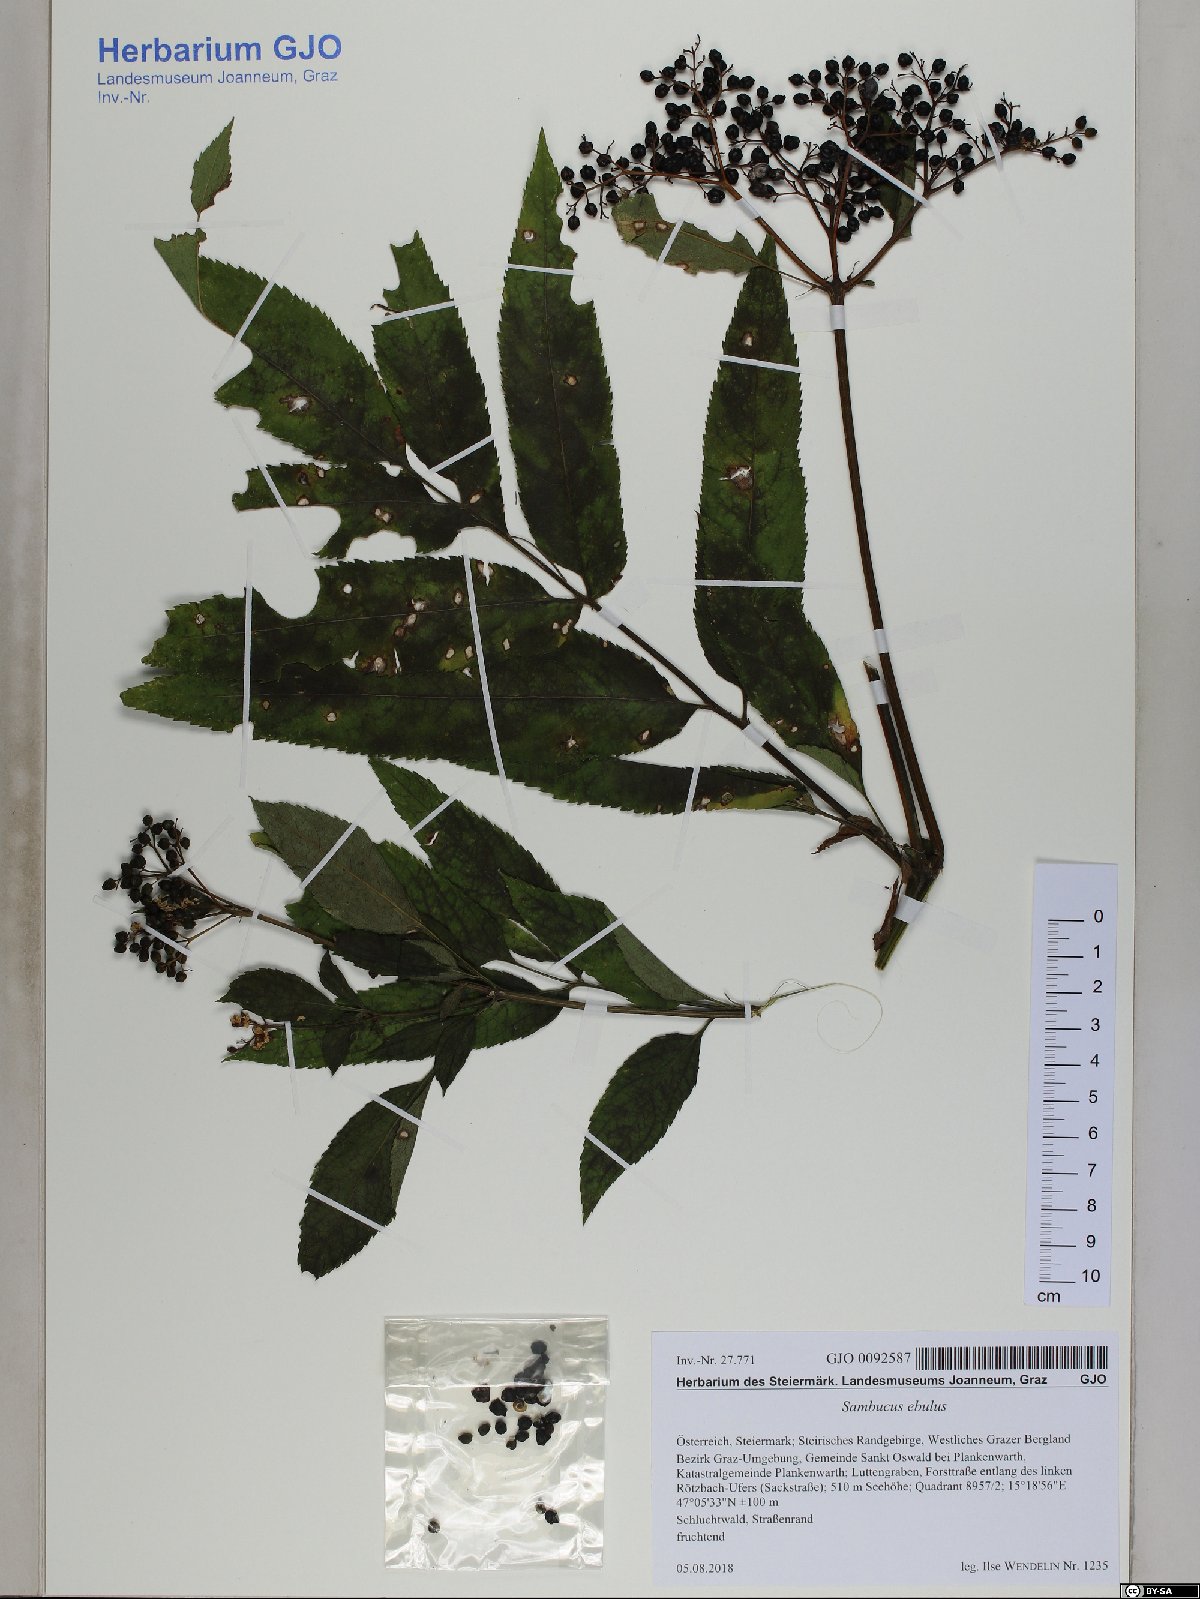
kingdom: Plantae
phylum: Tracheophyta
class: Magnoliopsida
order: Dipsacales
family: Viburnaceae
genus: Sambucus
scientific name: Sambucus ebulus
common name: Dwarf elder
